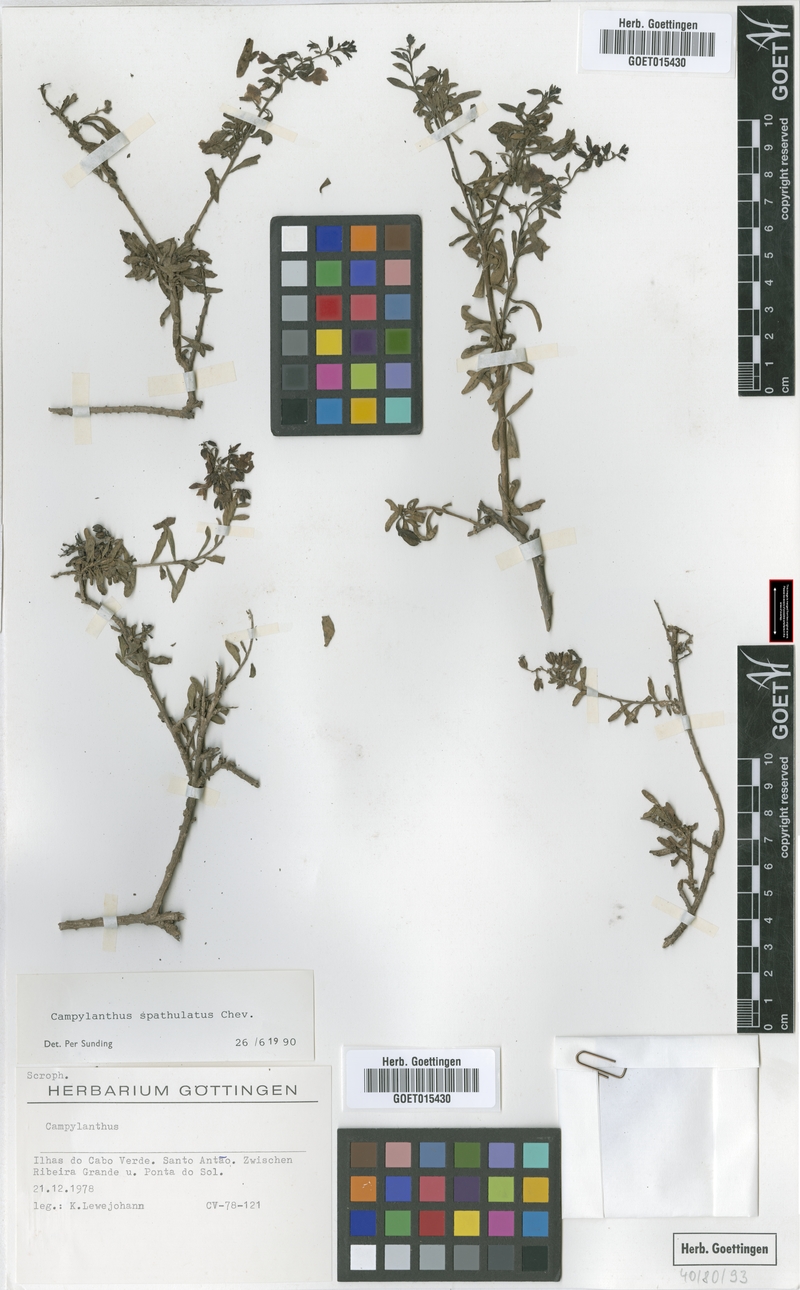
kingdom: Plantae
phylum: Tracheophyta
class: Magnoliopsida
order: Lamiales
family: Plantaginaceae
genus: Campylanthus
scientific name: Campylanthus glaber
